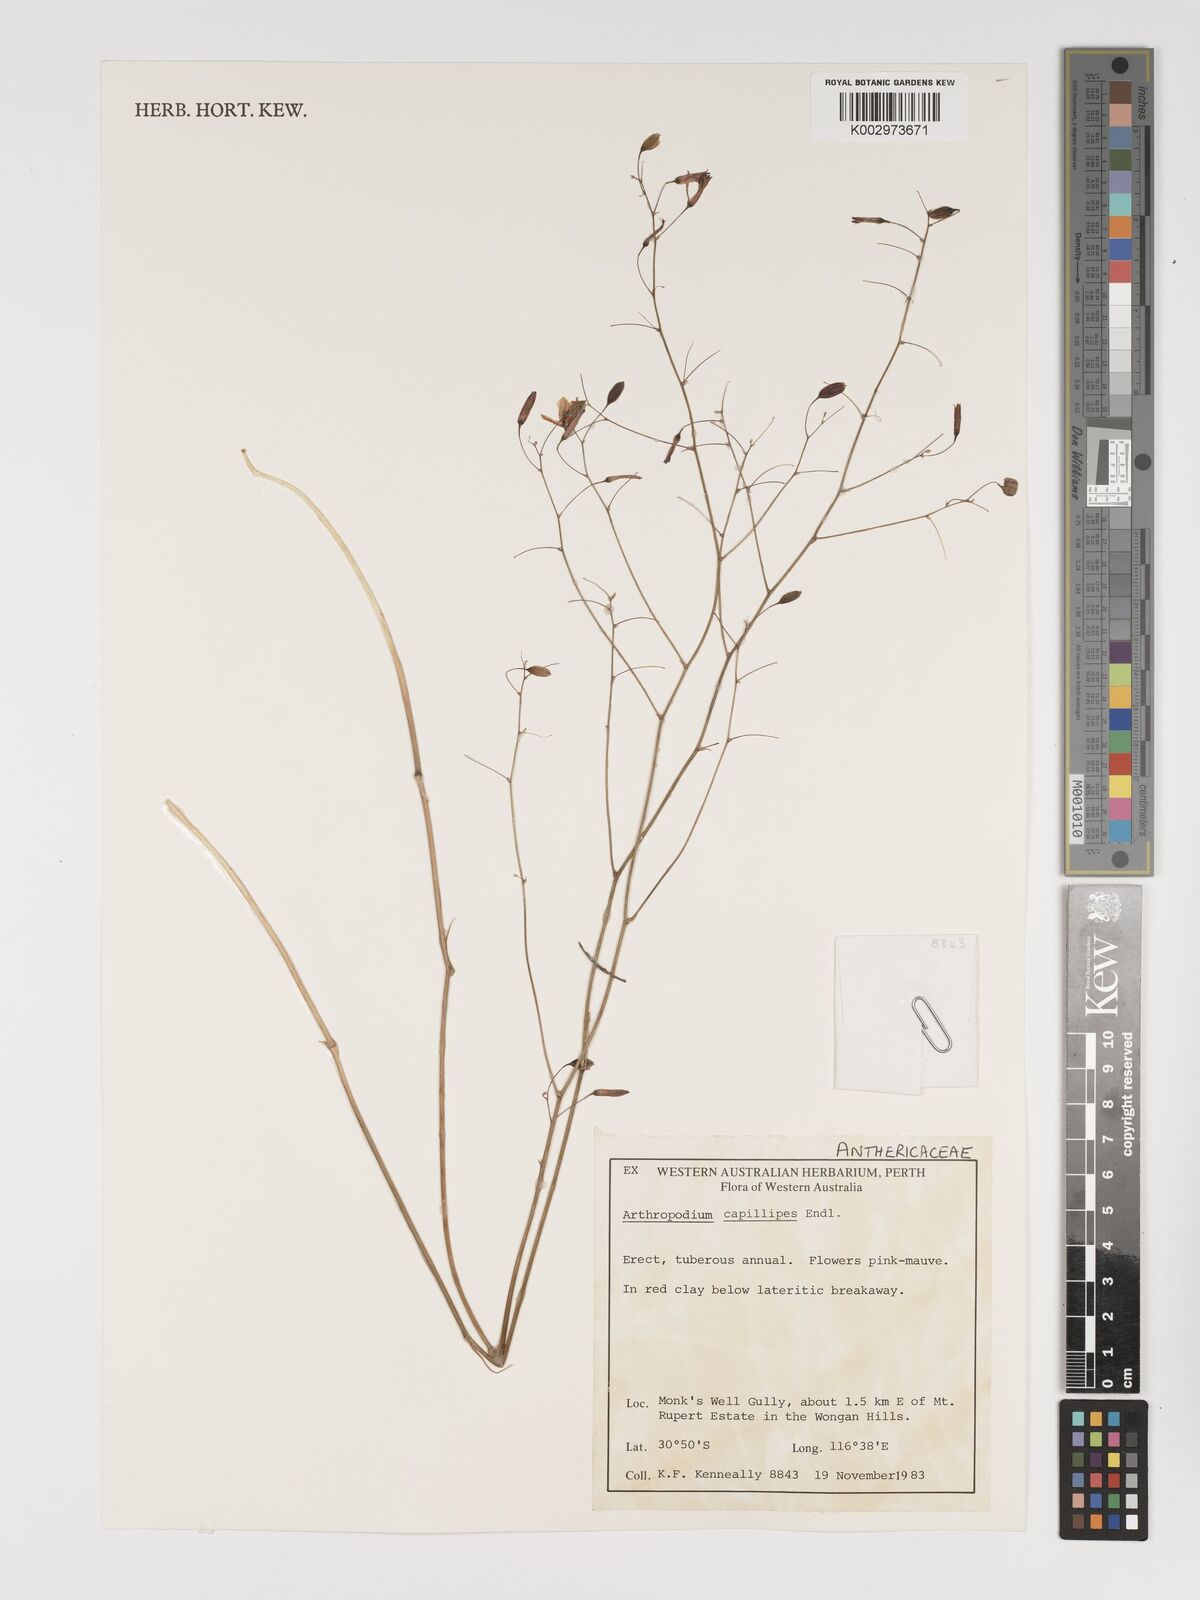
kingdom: Plantae
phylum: Tracheophyta
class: Liliopsida
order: Asparagales
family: Asparagaceae
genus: Dichopogon
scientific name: Dichopogon capillipes
